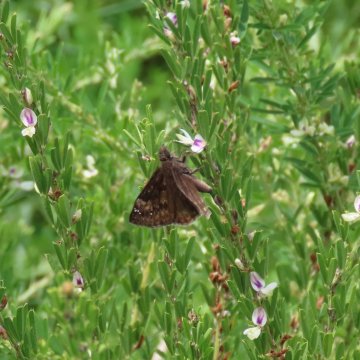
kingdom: Animalia
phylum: Arthropoda
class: Insecta
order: Lepidoptera
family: Hesperiidae
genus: Gesta
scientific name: Gesta
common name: Wild Indigo Duskywing
